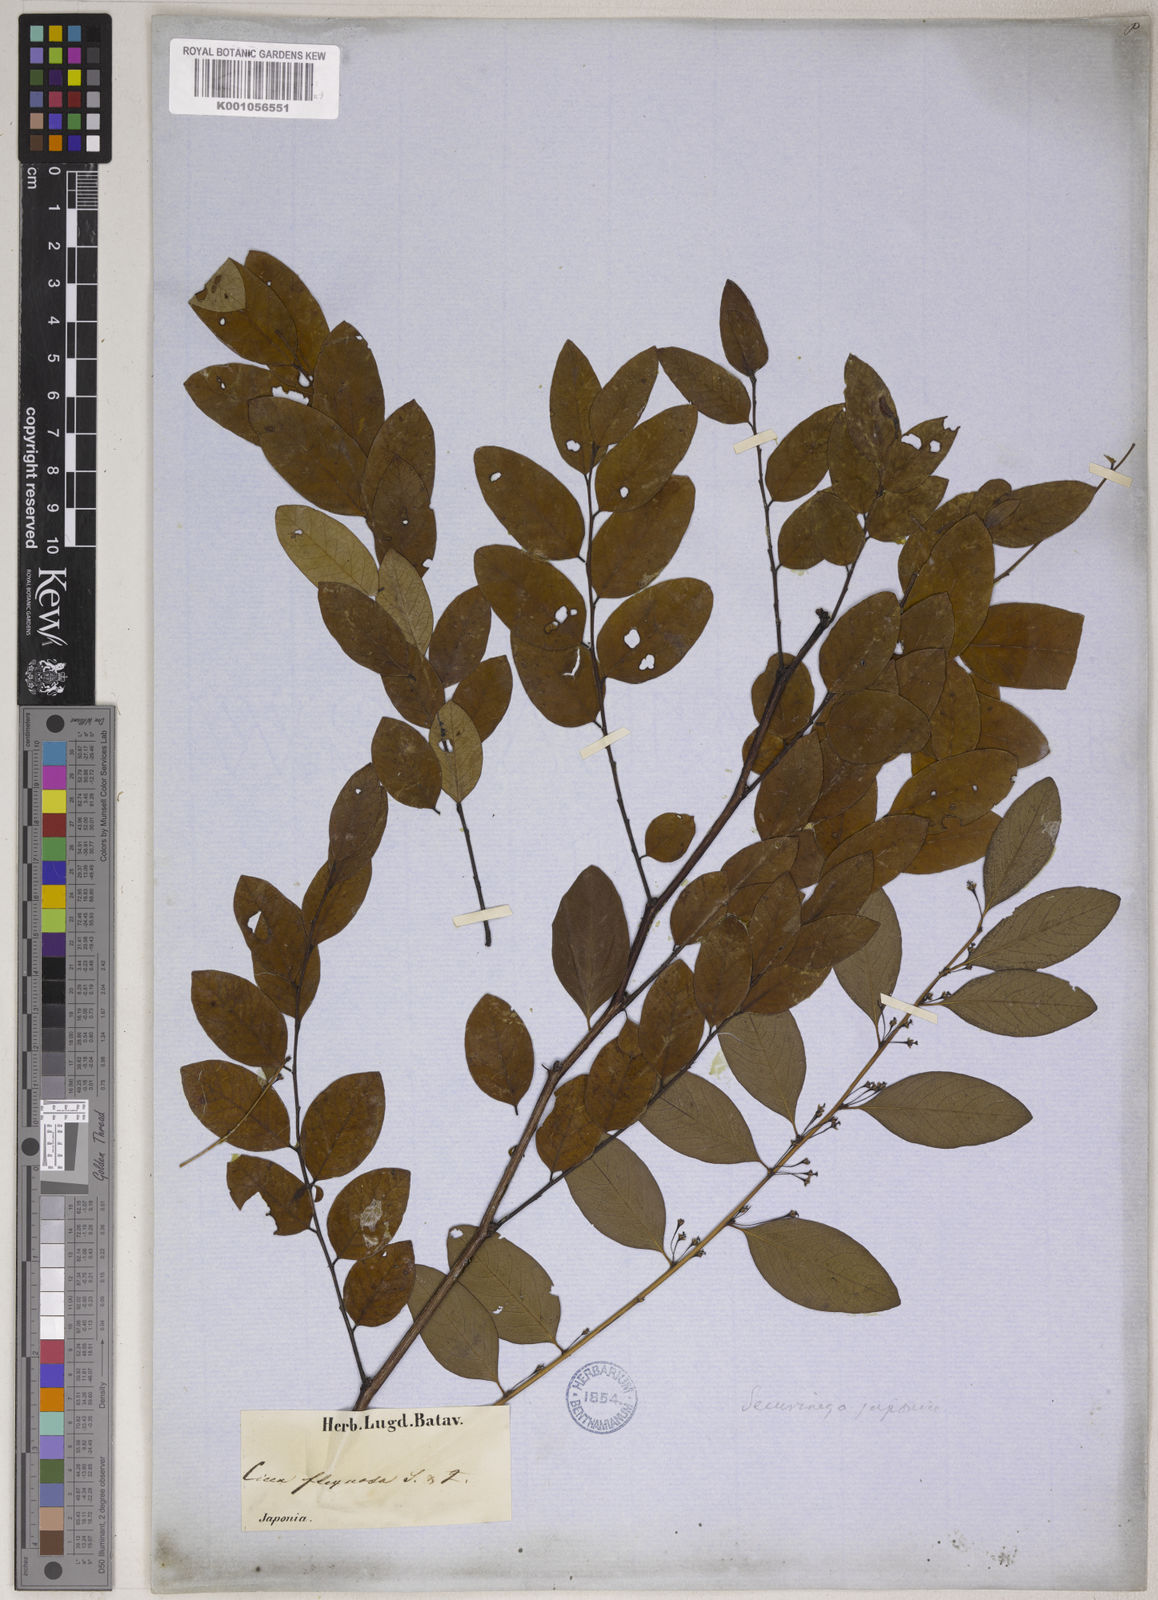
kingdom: Plantae
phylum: Tracheophyta
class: Magnoliopsida
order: Malpighiales
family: Phyllanthaceae
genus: Phyllanthus
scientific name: Phyllanthus
